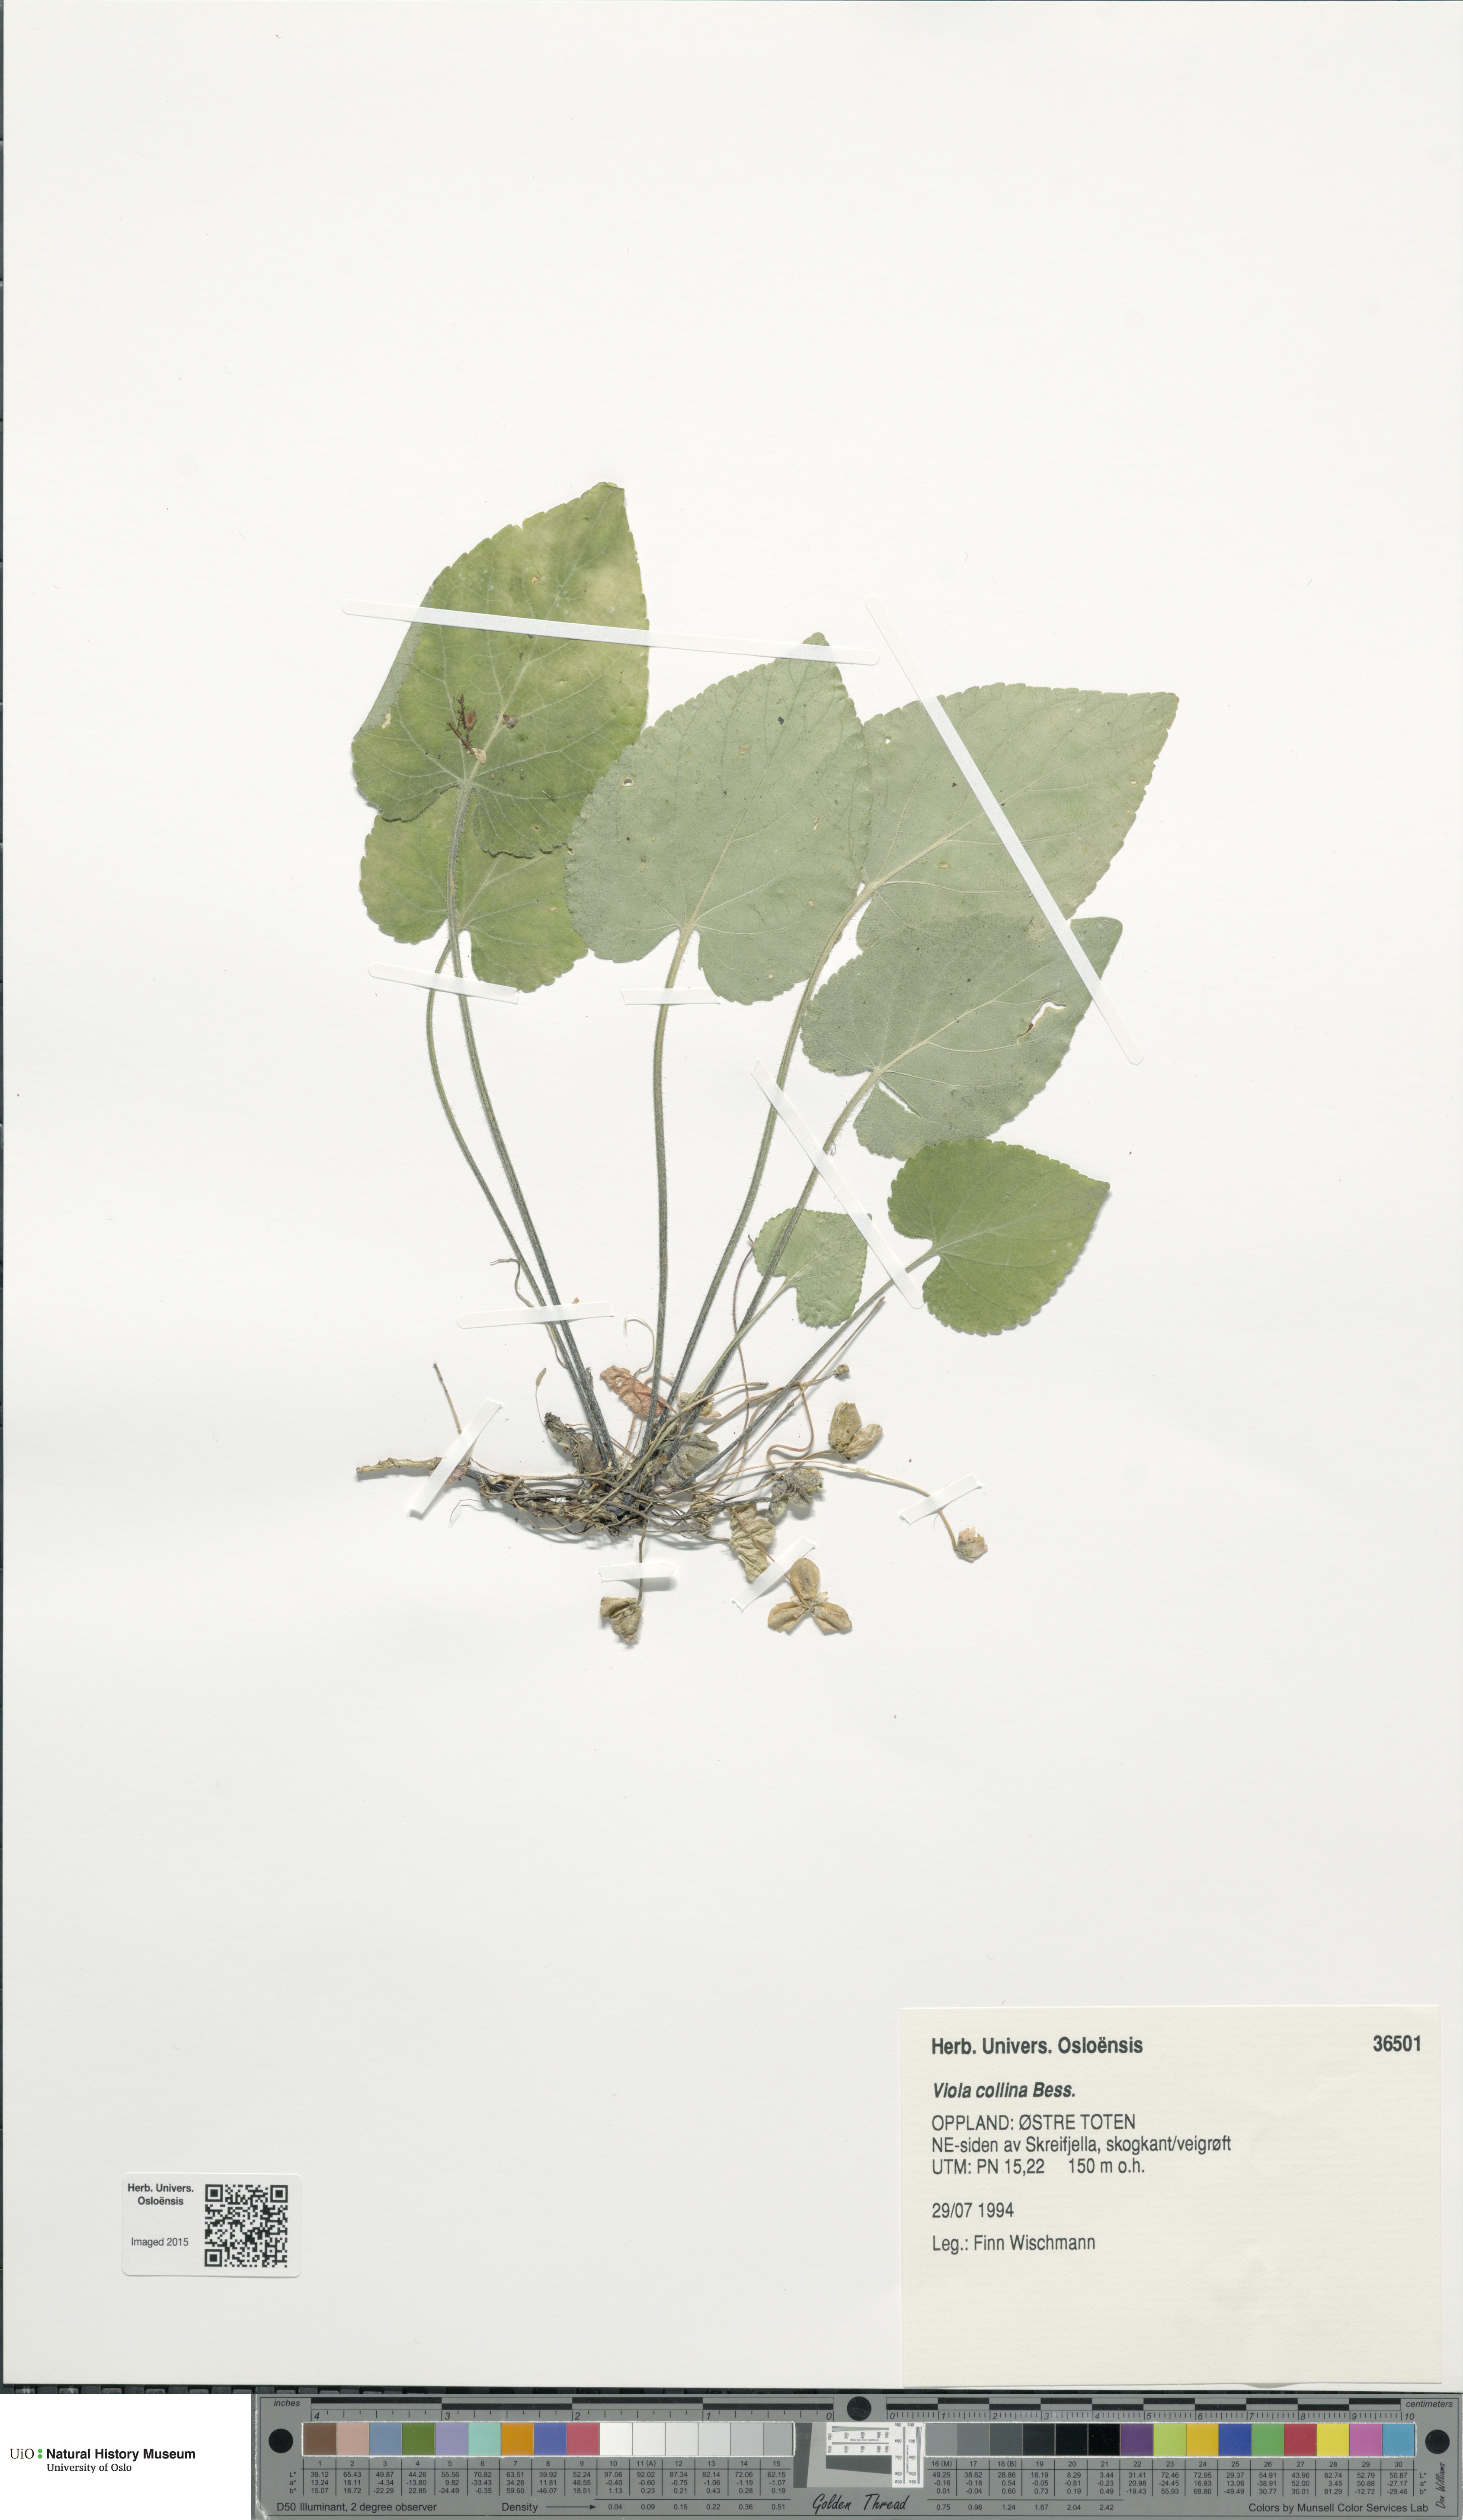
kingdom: Plantae
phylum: Tracheophyta
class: Magnoliopsida
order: Malpighiales
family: Violaceae
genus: Viola
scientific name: Viola collina
